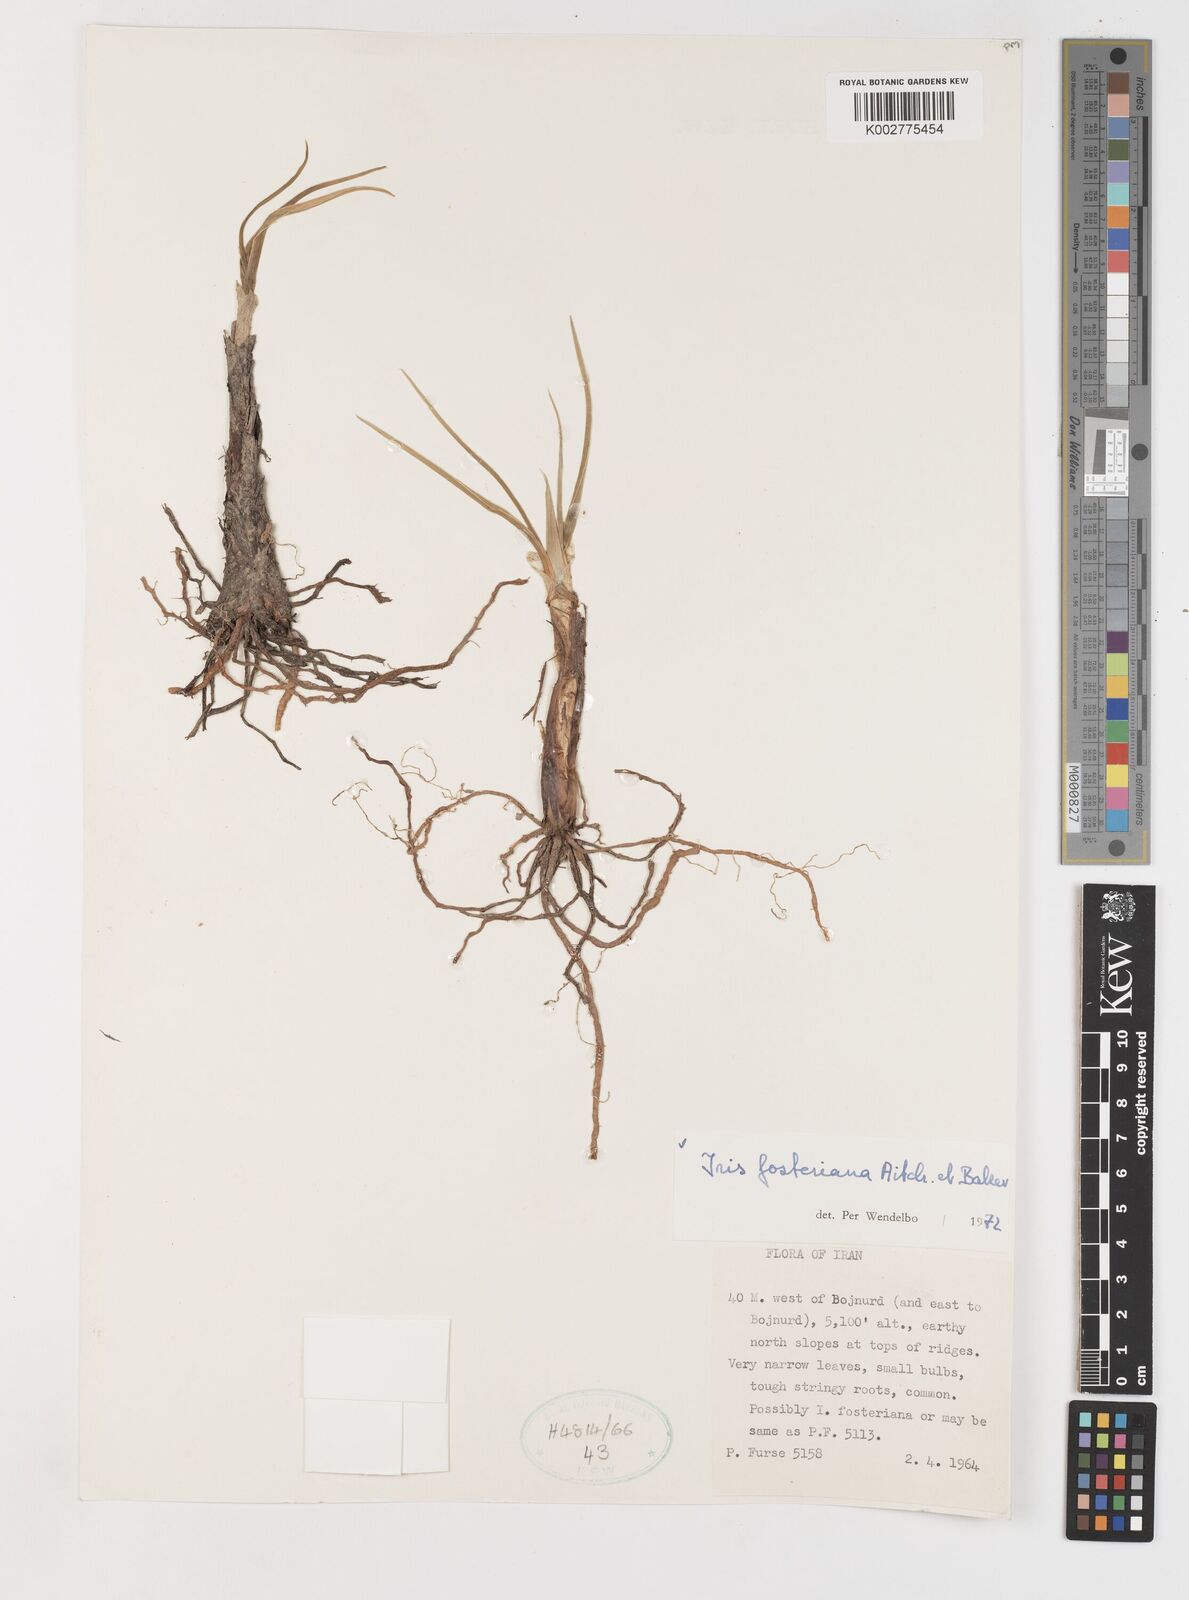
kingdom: Plantae
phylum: Tracheophyta
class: Liliopsida
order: Asparagales
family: Iridaceae
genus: Iris
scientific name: Iris fosteriana
